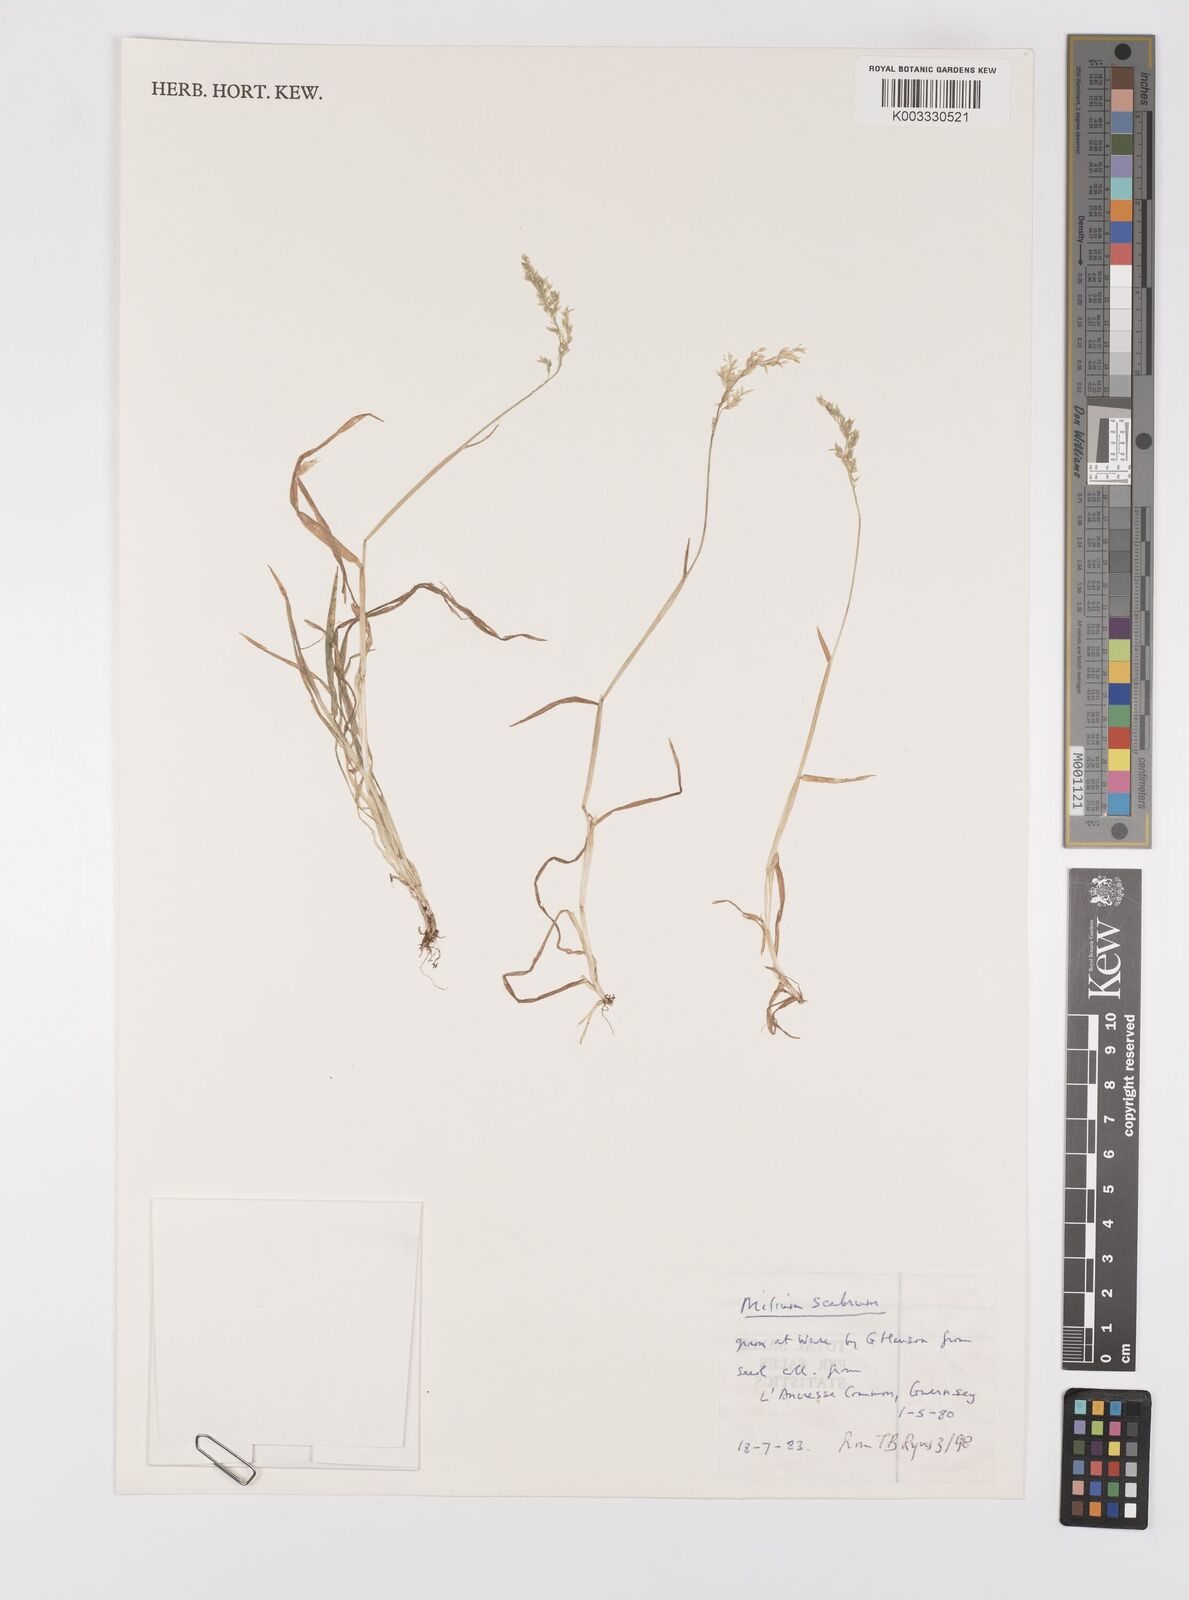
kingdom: Plantae
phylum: Tracheophyta
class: Liliopsida
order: Poales
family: Poaceae
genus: Milium
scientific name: Milium vernale
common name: Early millet
